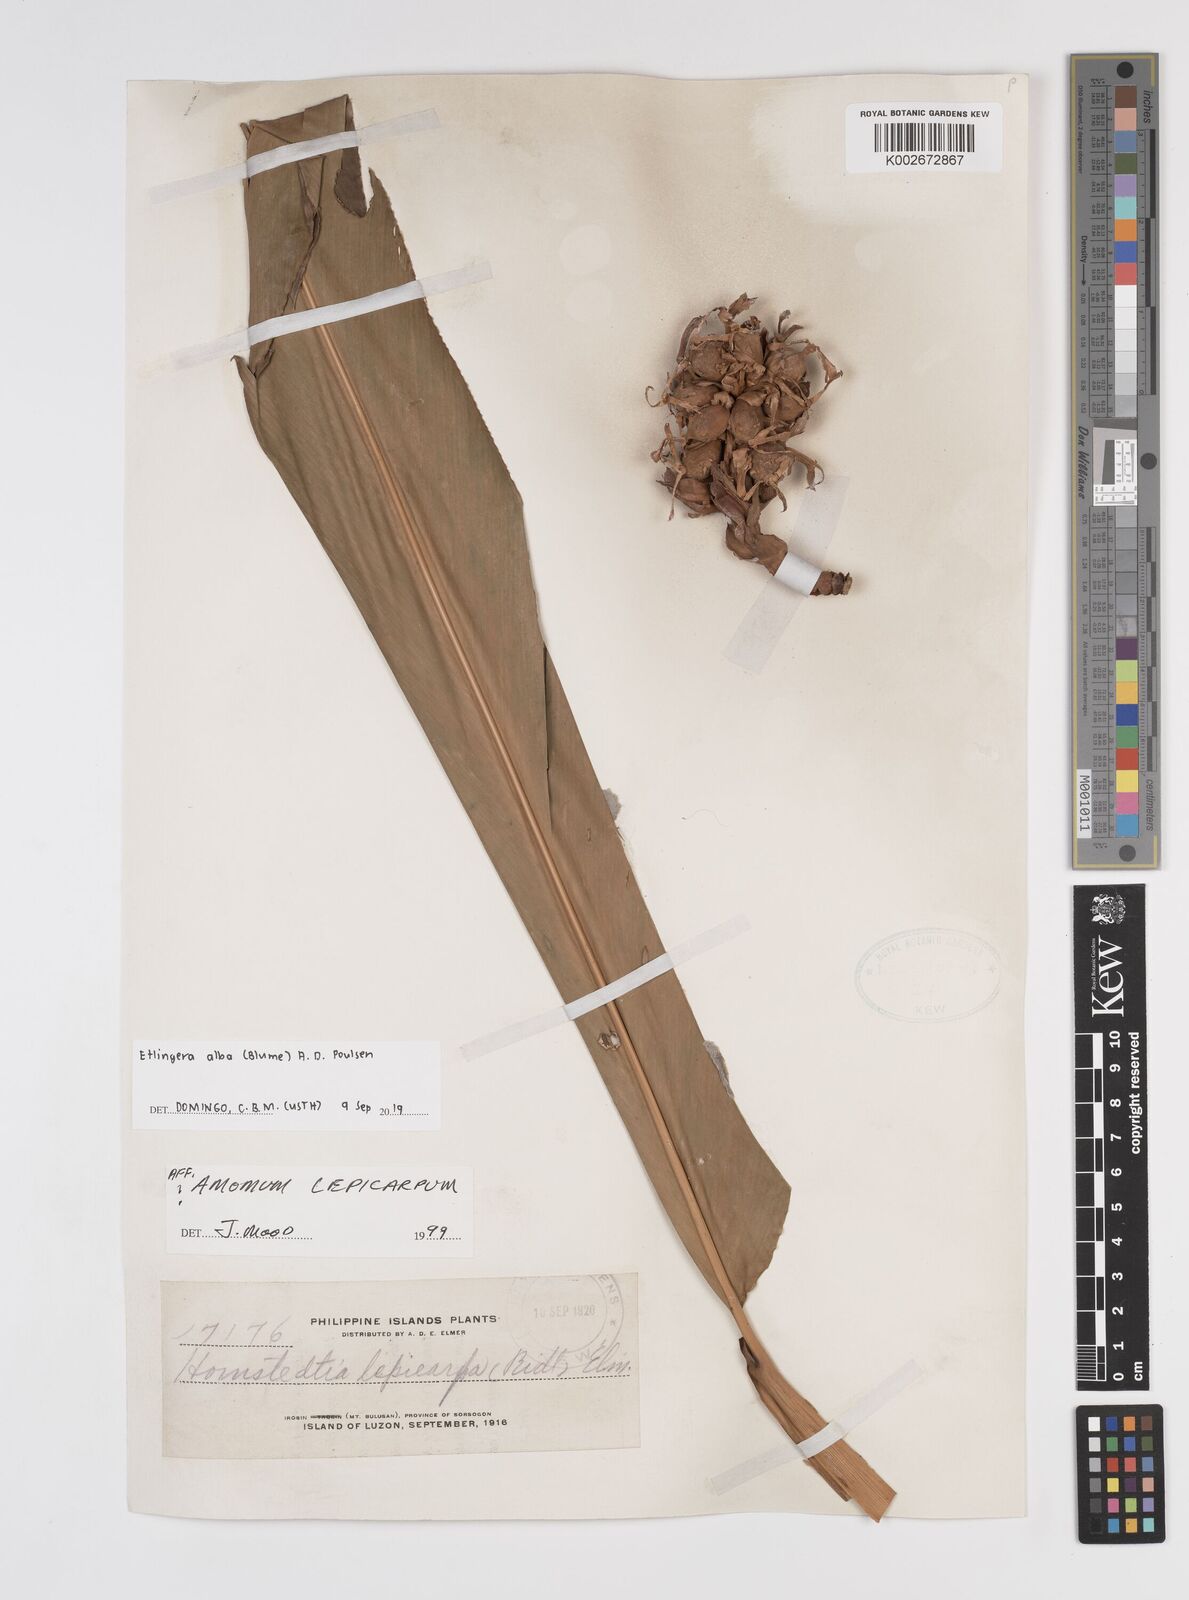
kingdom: Plantae
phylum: Tracheophyta
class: Liliopsida
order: Zingiberales
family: Zingiberaceae
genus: Etlingera
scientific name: Etlingera alba
